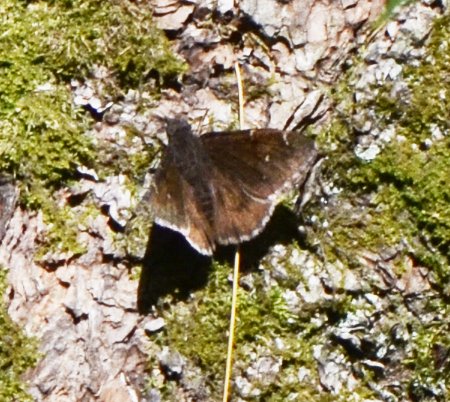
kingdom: Animalia
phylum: Arthropoda
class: Insecta
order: Lepidoptera
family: Hesperiidae
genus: Autochton
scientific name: Autochton
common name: Northern Cloudywing
